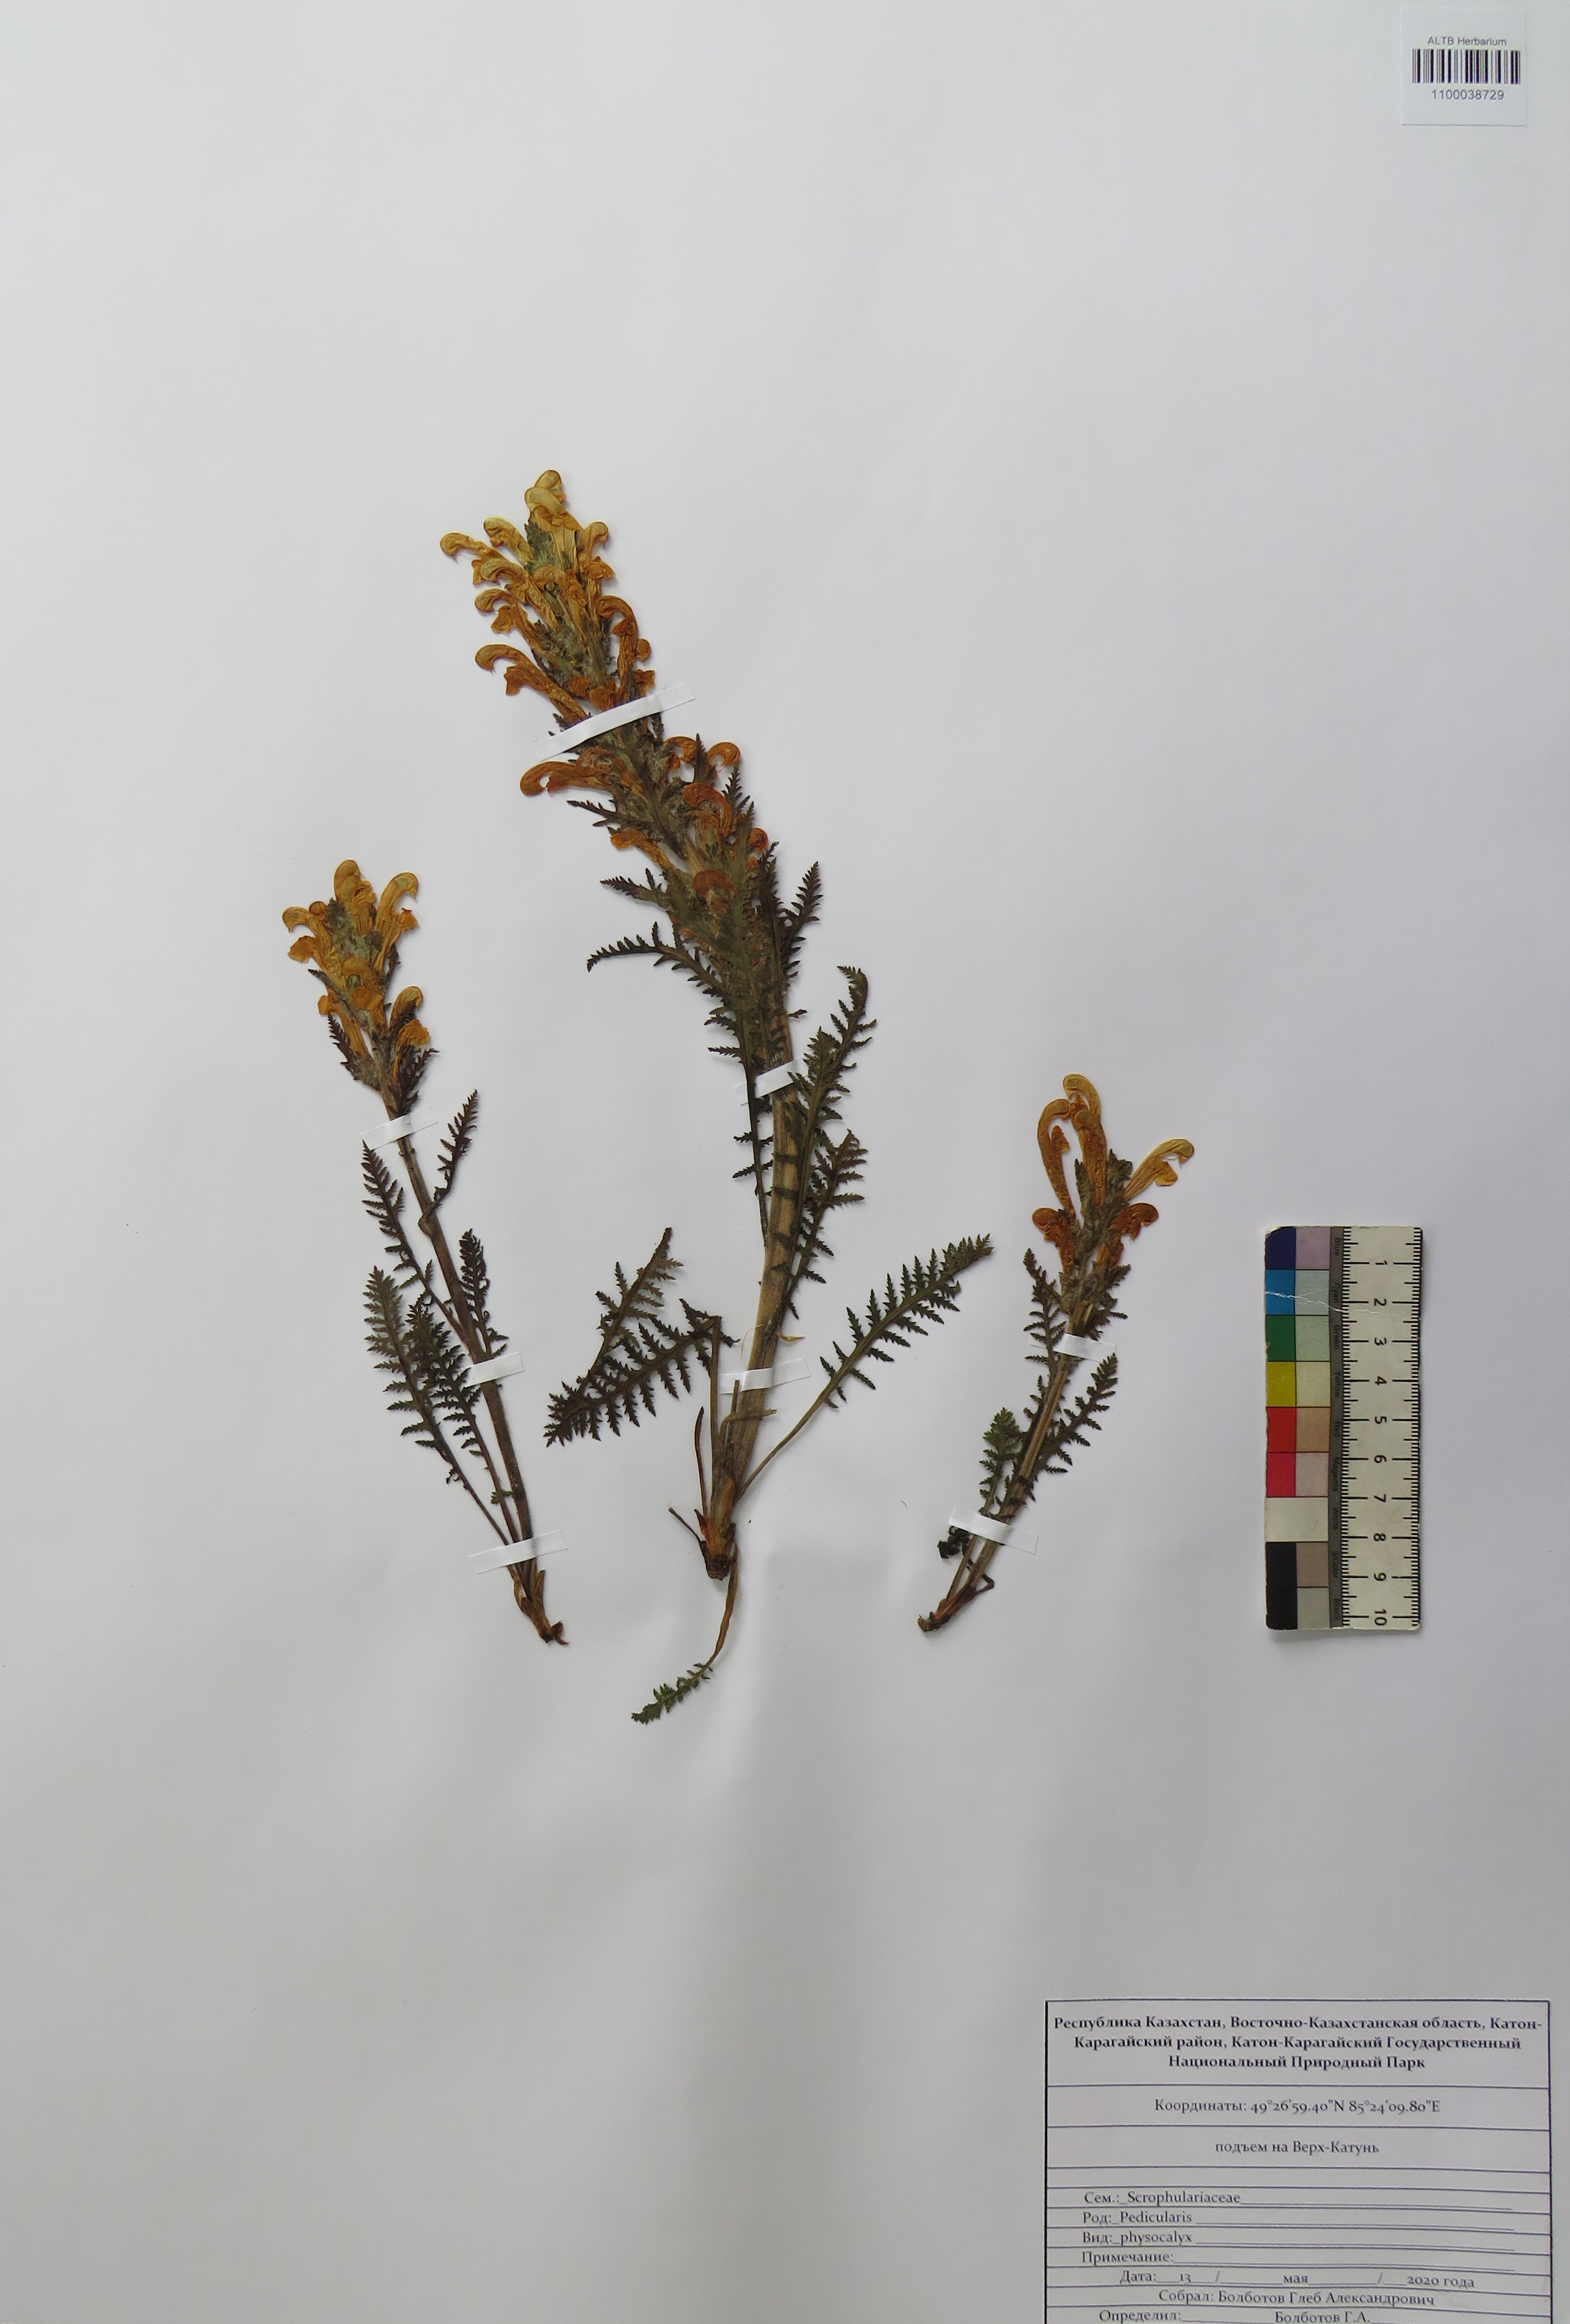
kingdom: Plantae
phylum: Tracheophyta
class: Magnoliopsida
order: Lamiales
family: Orobanchaceae
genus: Pedicularis
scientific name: Pedicularis physocalyx
